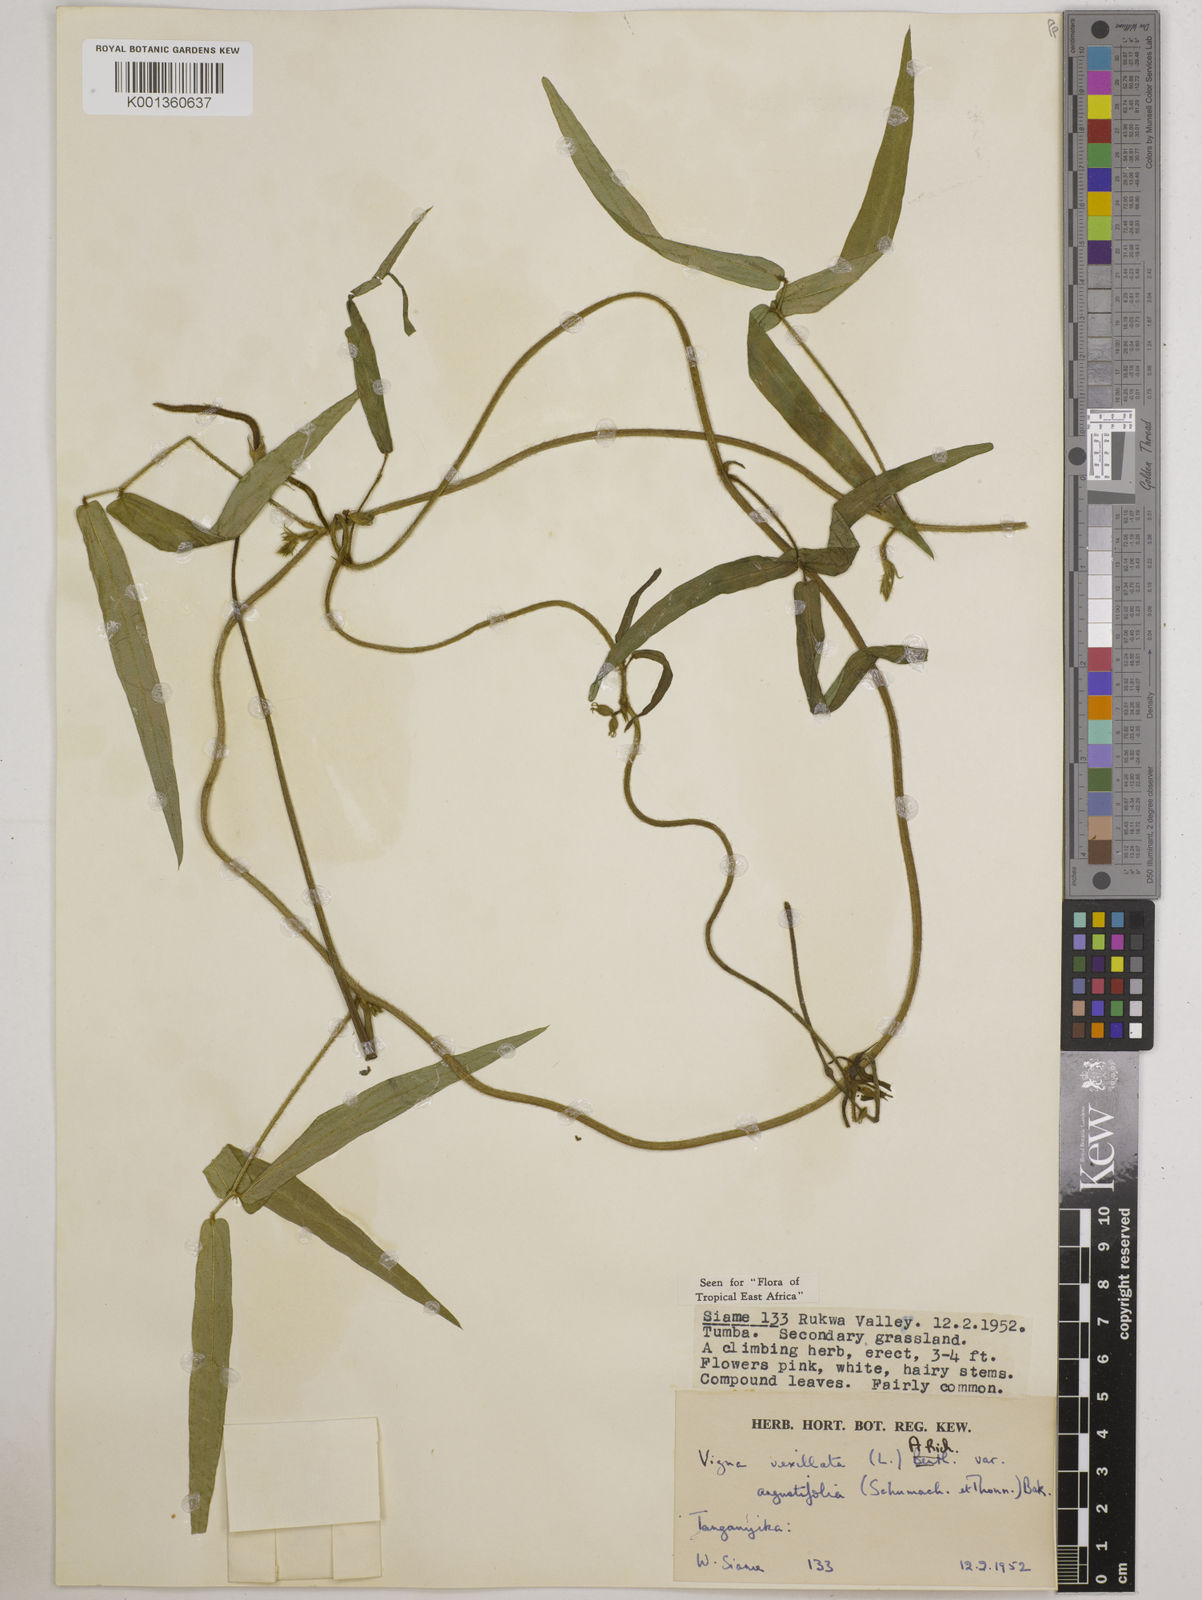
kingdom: Plantae
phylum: Tracheophyta
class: Magnoliopsida
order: Fabales
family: Fabaceae
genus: Vigna
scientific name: Vigna vexillata
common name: Zombi pea
